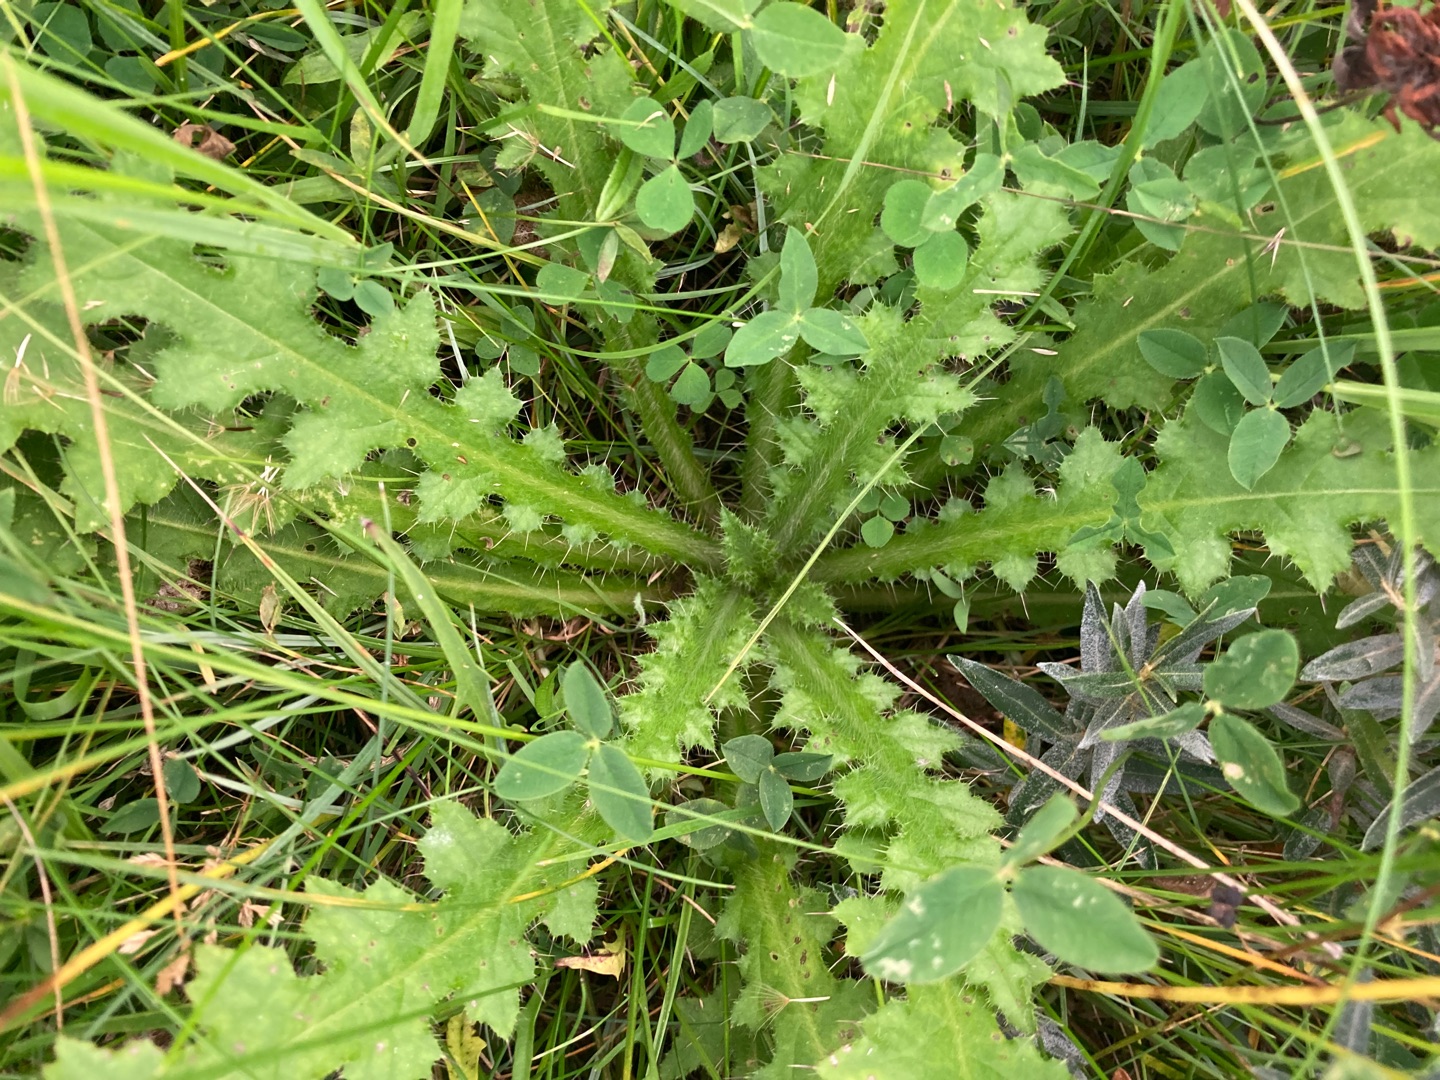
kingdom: Plantae
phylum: Tracheophyta
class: Magnoliopsida
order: Asterales
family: Asteraceae
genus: Cirsium
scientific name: Cirsium palustre
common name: Kær-tidsel
